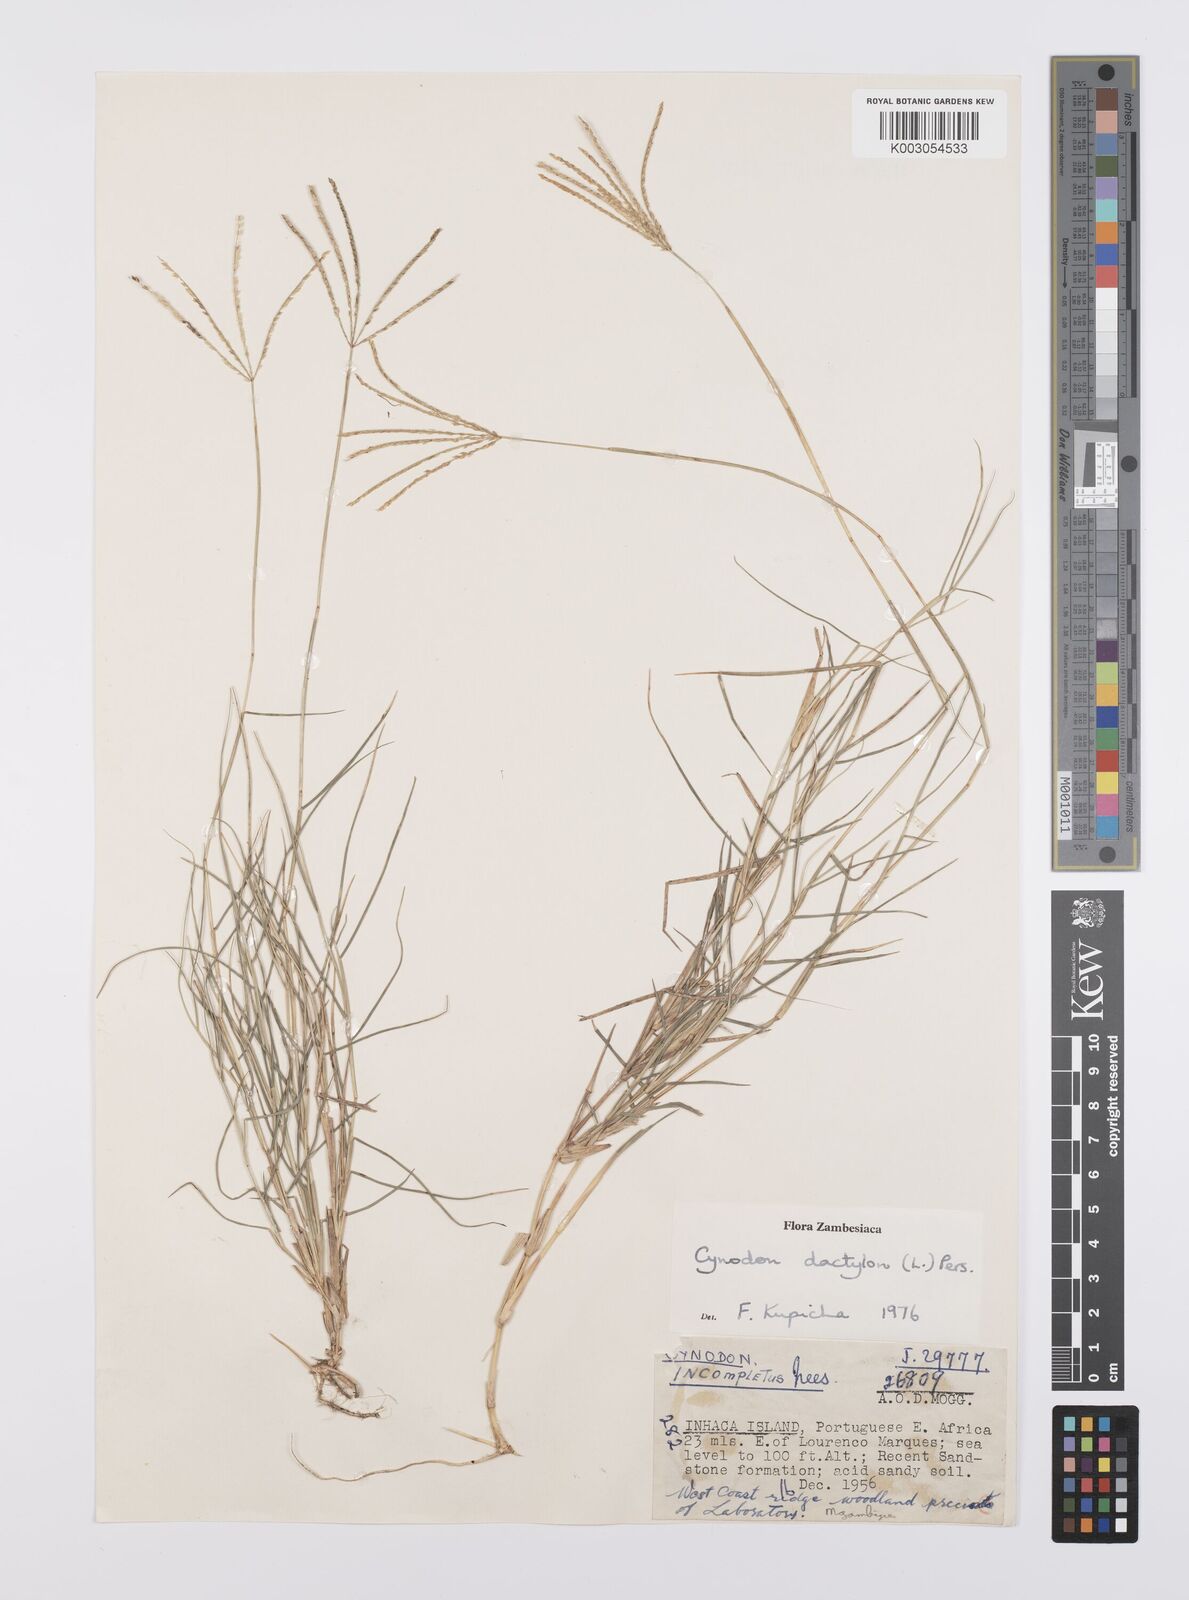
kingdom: Plantae
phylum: Tracheophyta
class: Liliopsida
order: Poales
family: Poaceae
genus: Cynodon
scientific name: Cynodon dactylon
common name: Bermuda grass
